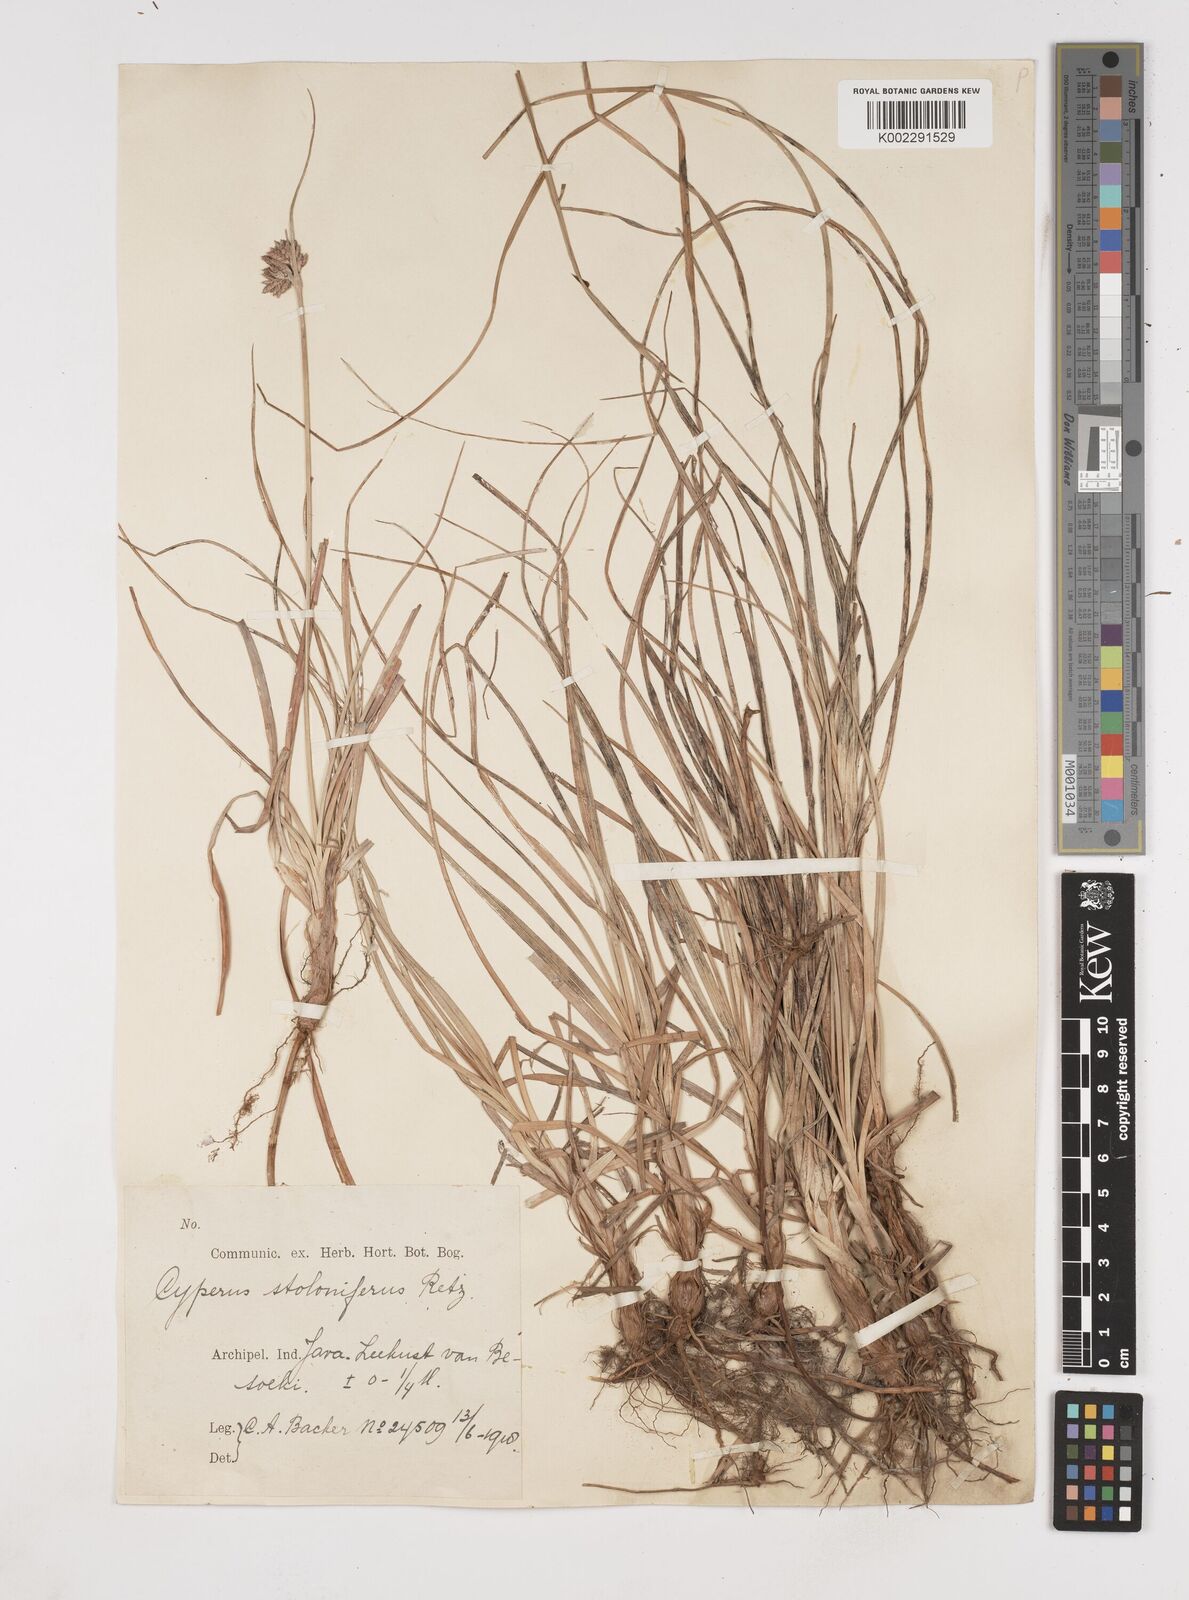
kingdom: Plantae
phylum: Tracheophyta
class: Liliopsida
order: Poales
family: Cyperaceae
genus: Cyperus
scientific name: Cyperus bulbosus
